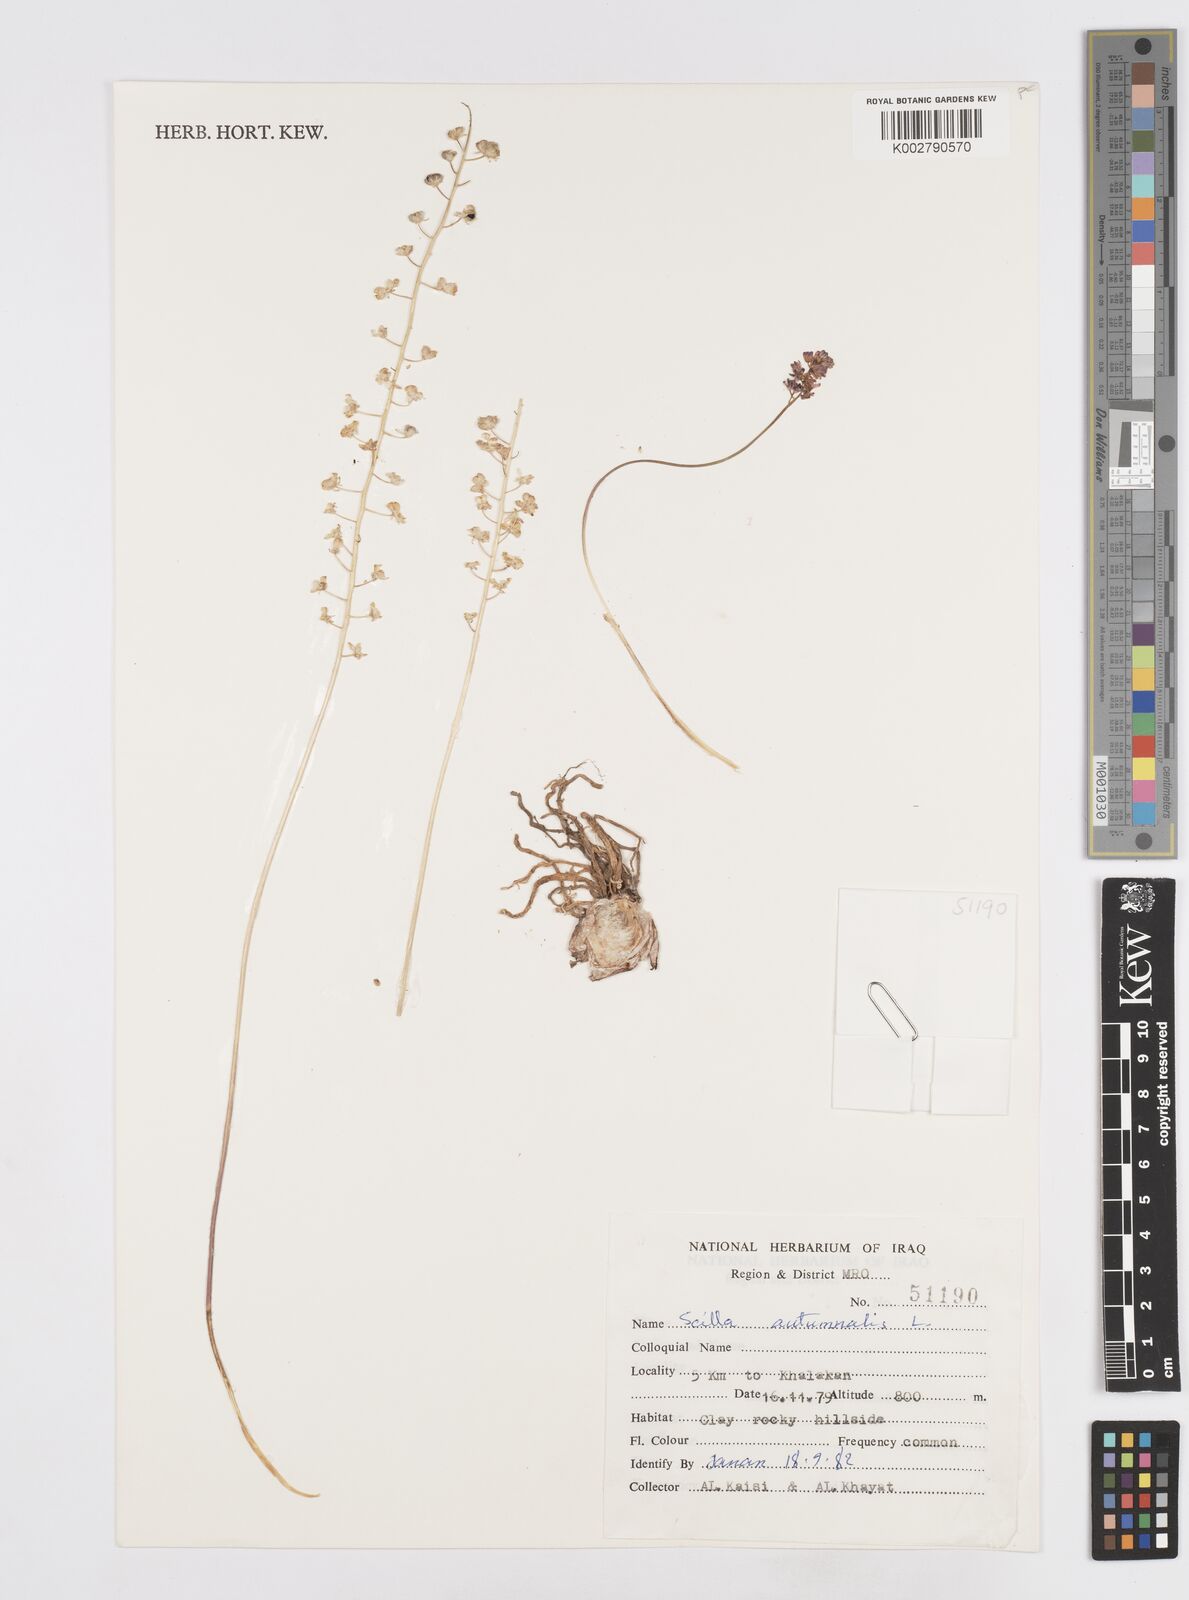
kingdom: Plantae
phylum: Tracheophyta
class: Liliopsida
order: Asparagales
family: Asparagaceae
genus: Prospero
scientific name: Prospero autumnale
